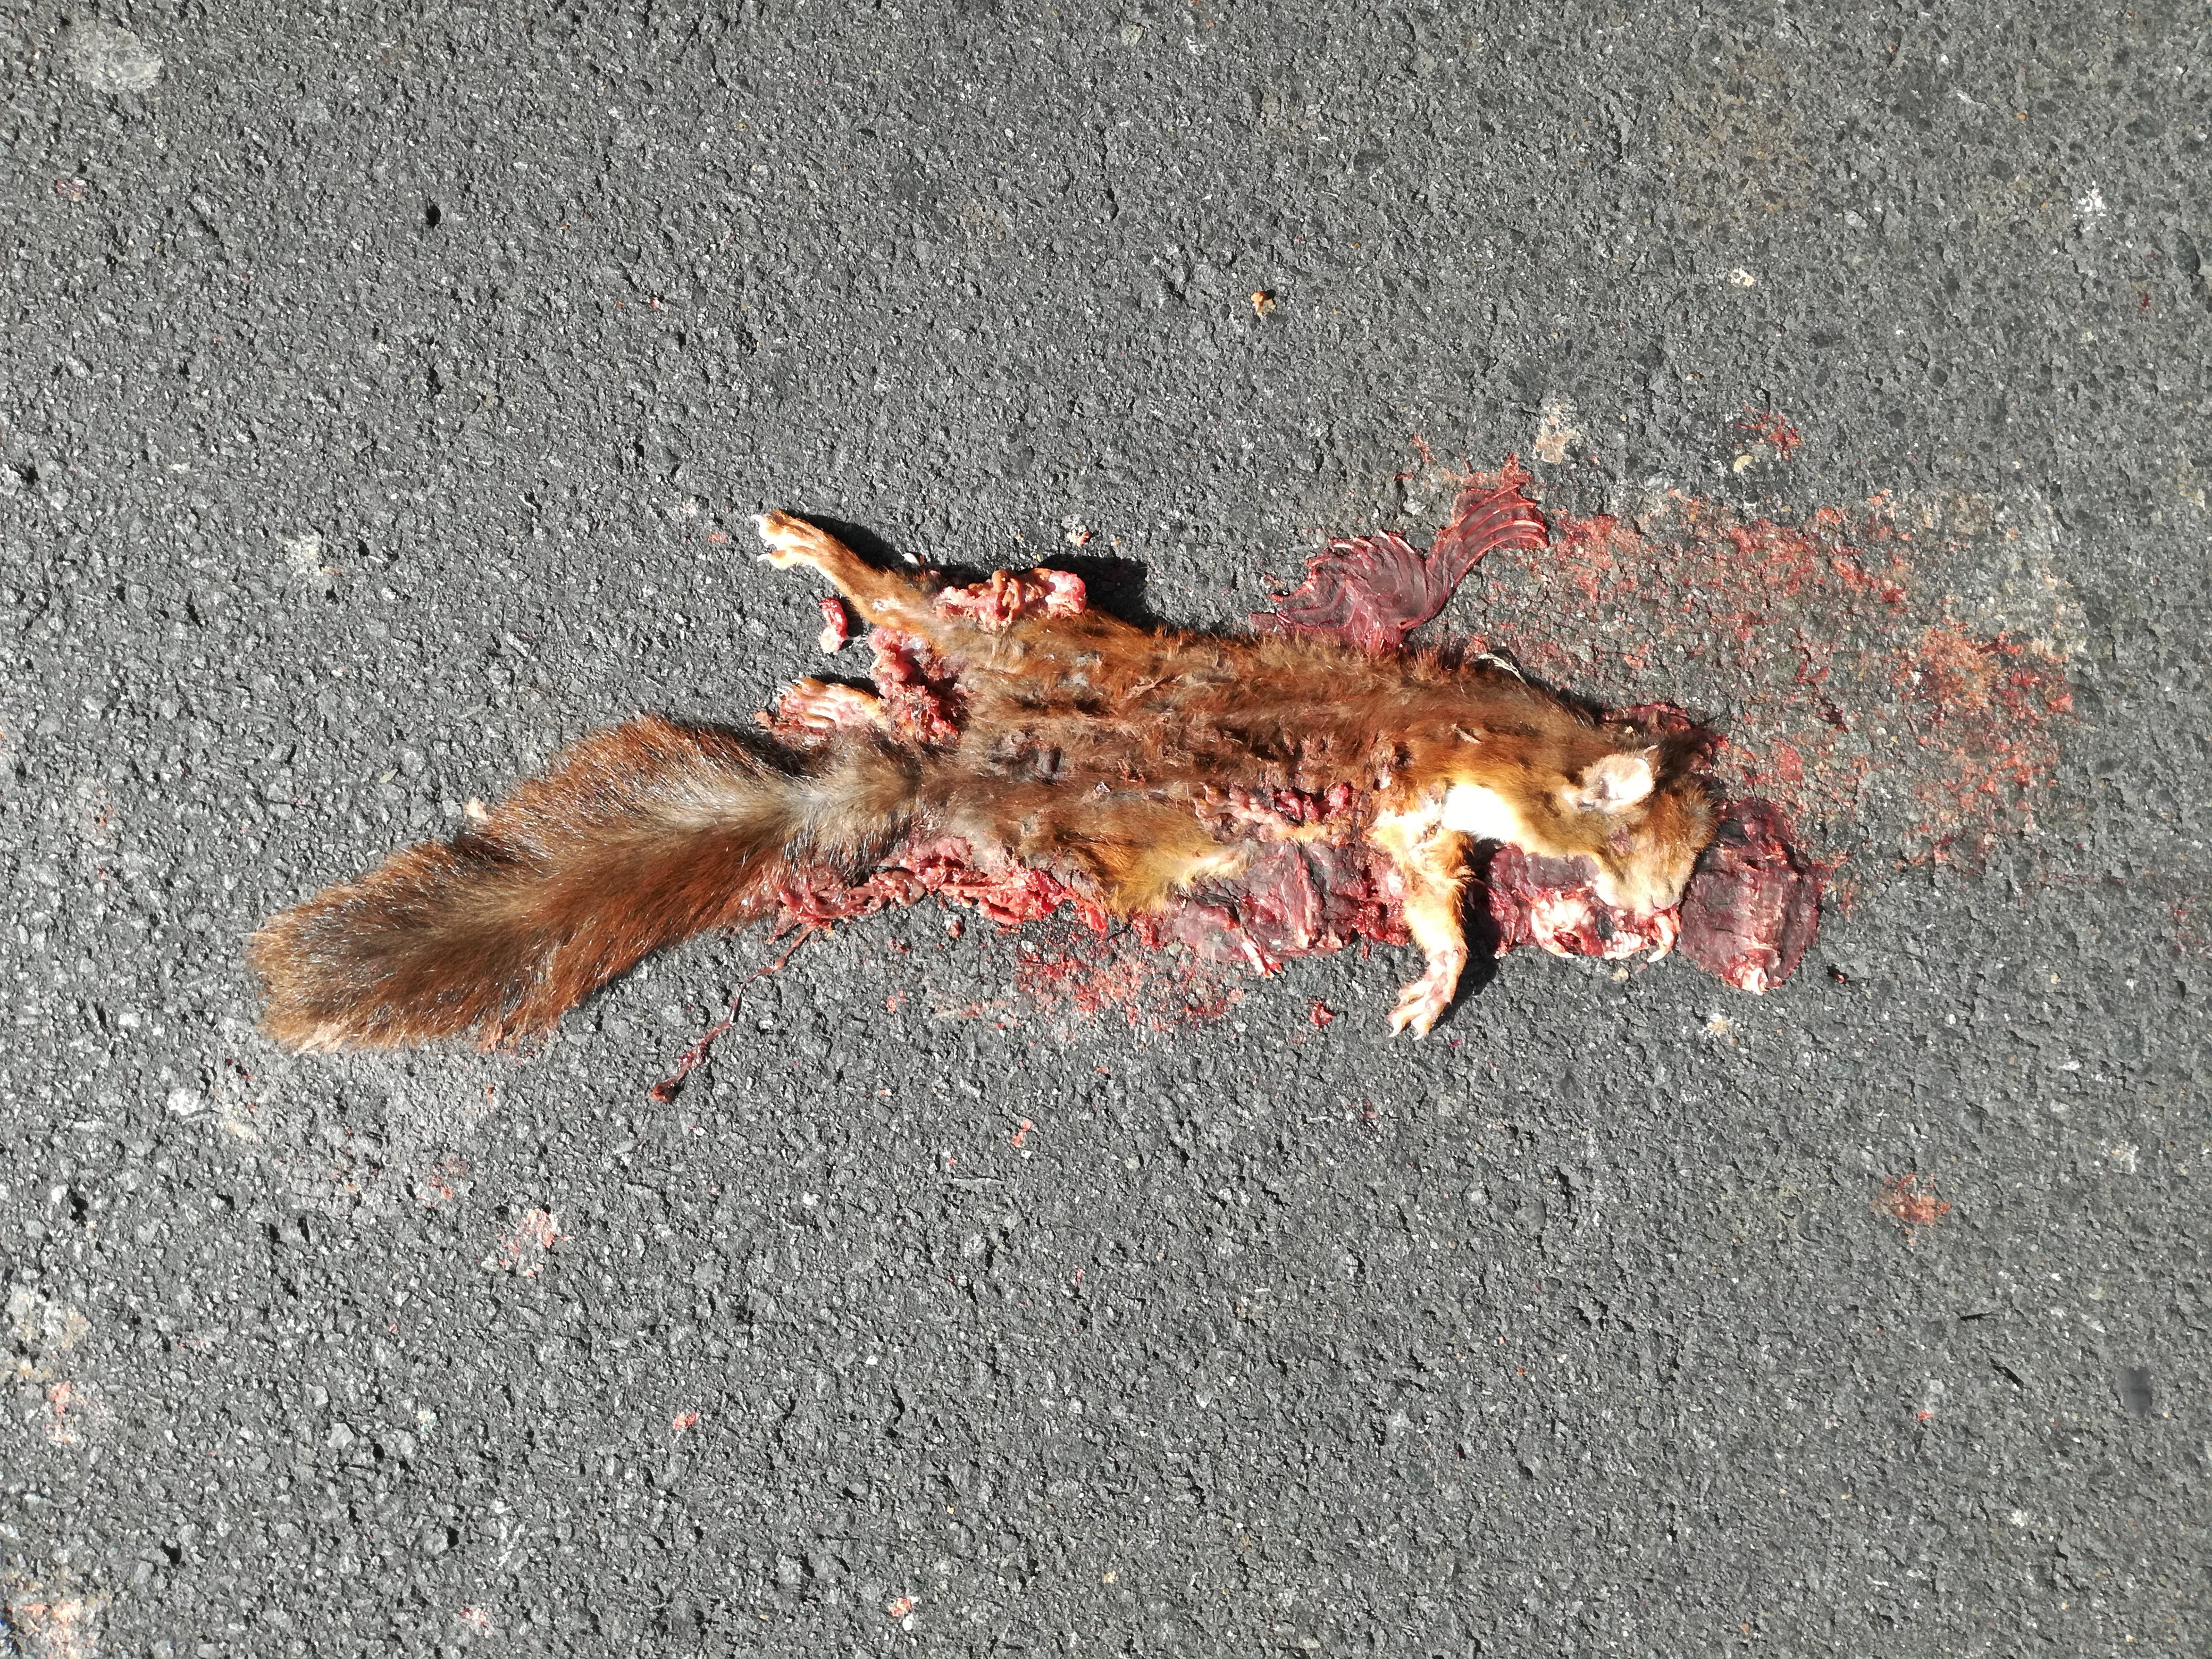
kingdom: Animalia
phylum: Chordata
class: Mammalia
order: Rodentia
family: Sciuridae
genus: Sciurus
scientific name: Sciurus vulgaris
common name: Eurasian red squirrel
